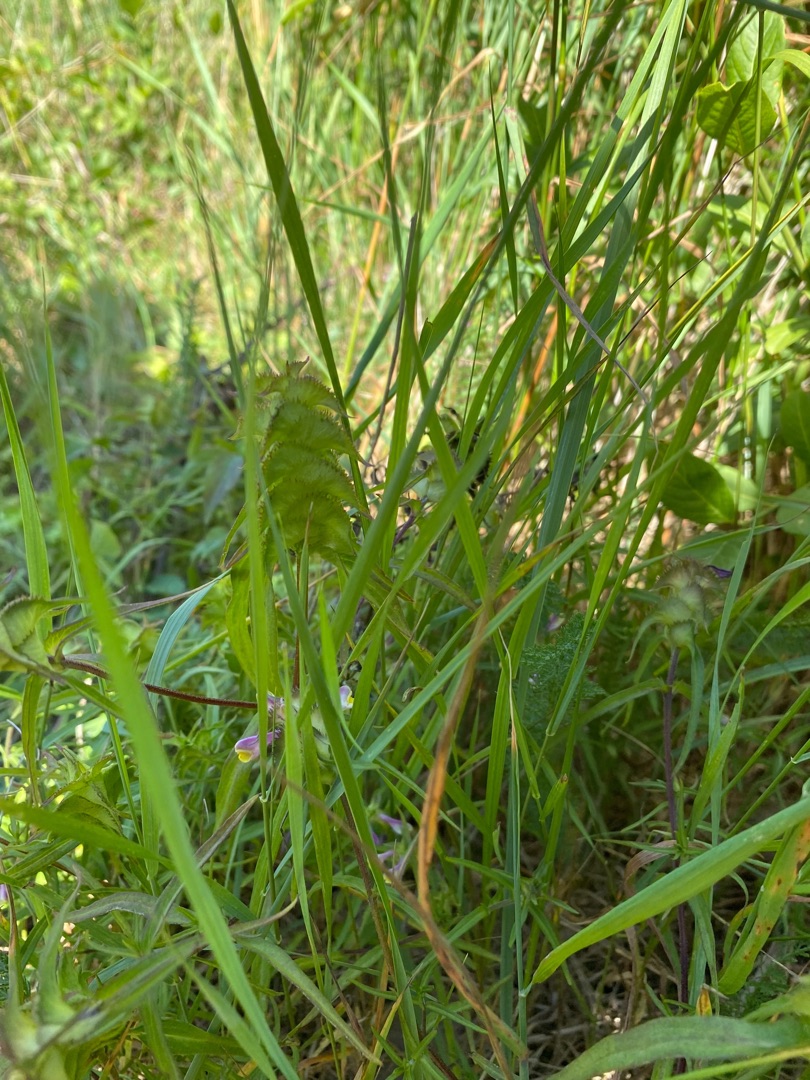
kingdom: Plantae
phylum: Tracheophyta
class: Magnoliopsida
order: Lamiales
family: Orobanchaceae
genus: Melampyrum
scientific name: Melampyrum cristatum
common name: Kantet kohvede
